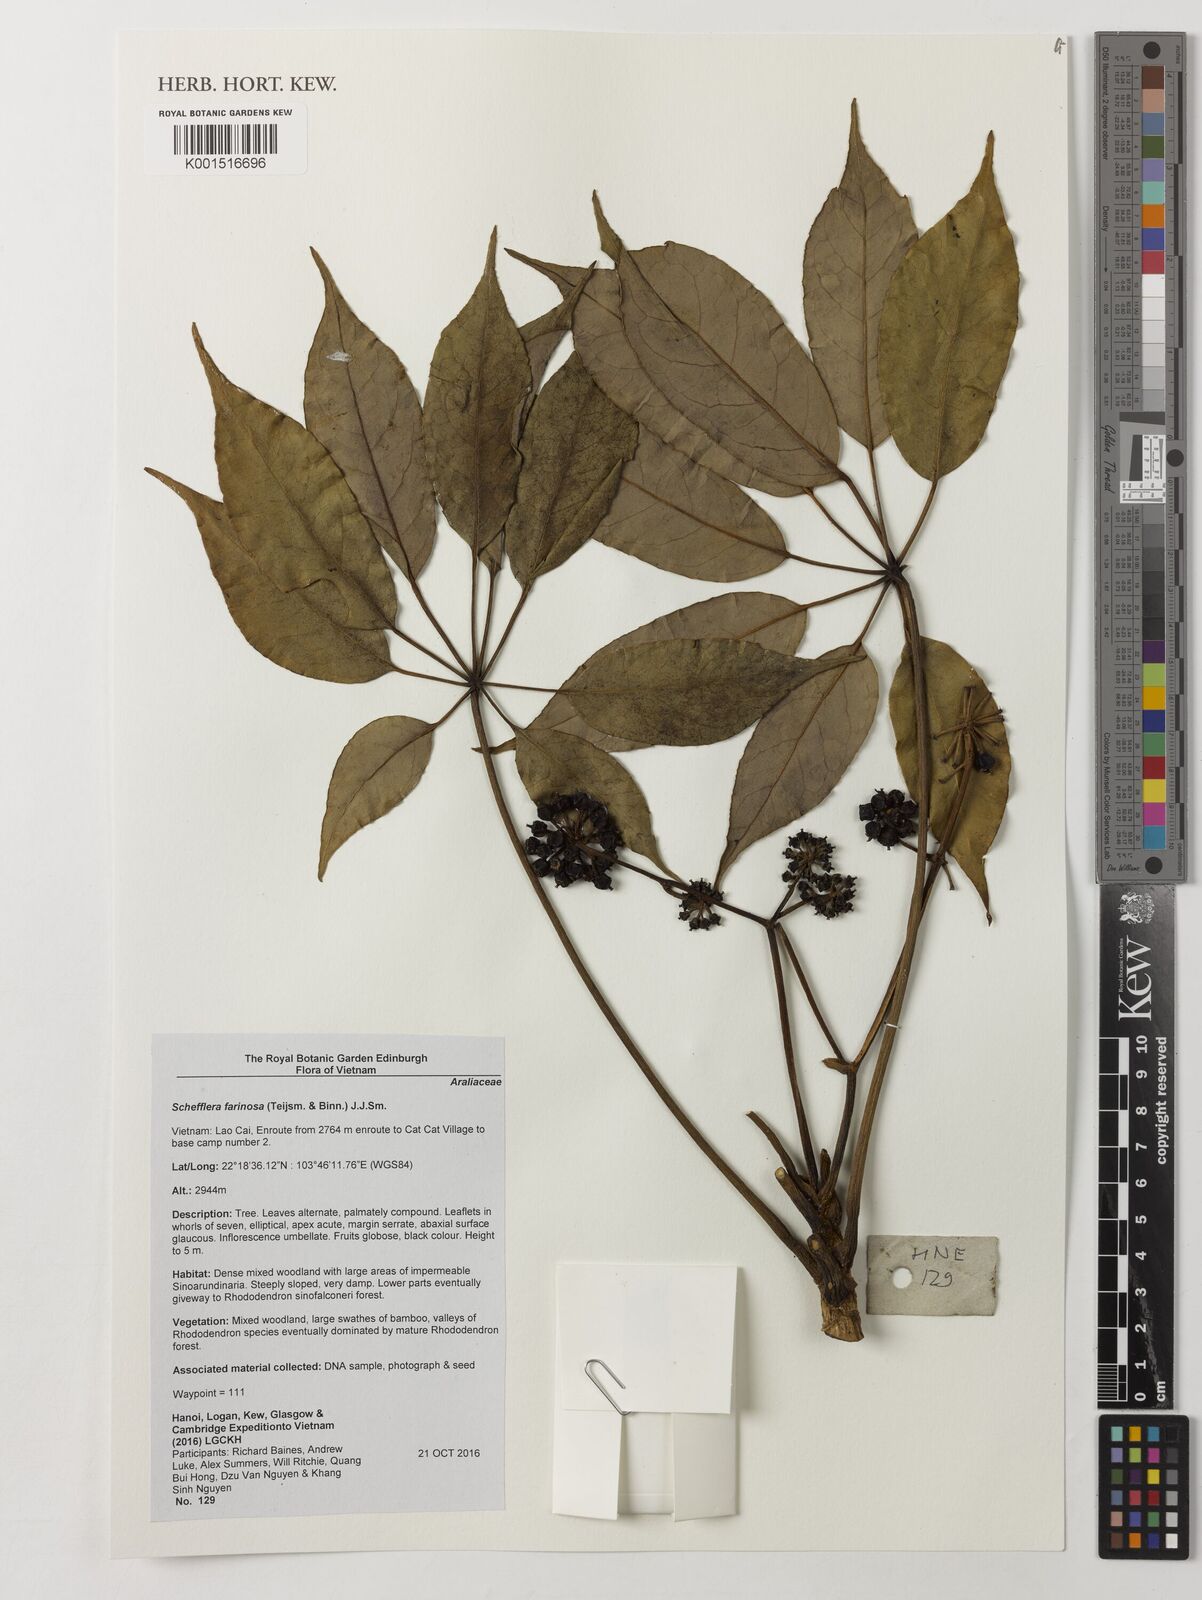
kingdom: Plantae
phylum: Tracheophyta
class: Magnoliopsida
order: Apiales
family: Araliaceae
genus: Schefflera
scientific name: Schefflera
